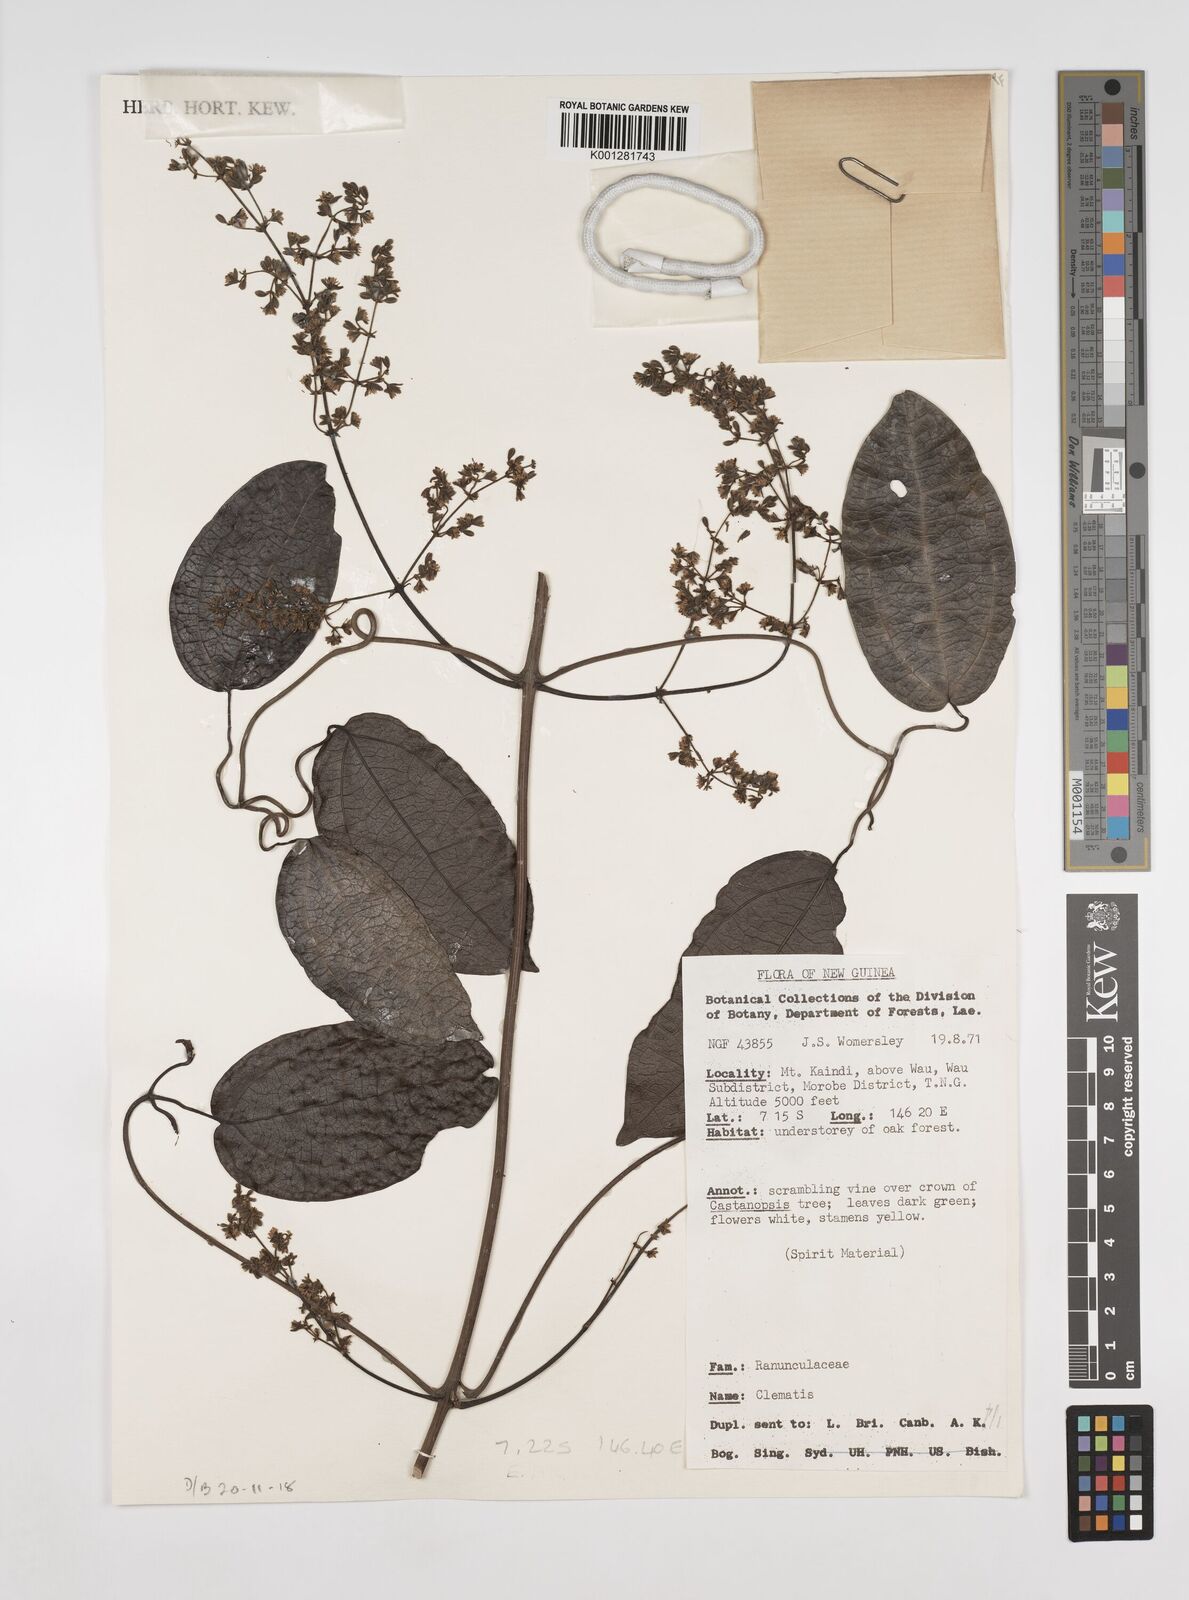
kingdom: Plantae
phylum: Tracheophyta
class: Magnoliopsida
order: Ranunculales
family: Ranunculaceae
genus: Clematis
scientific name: Clematis phanerophlebia
